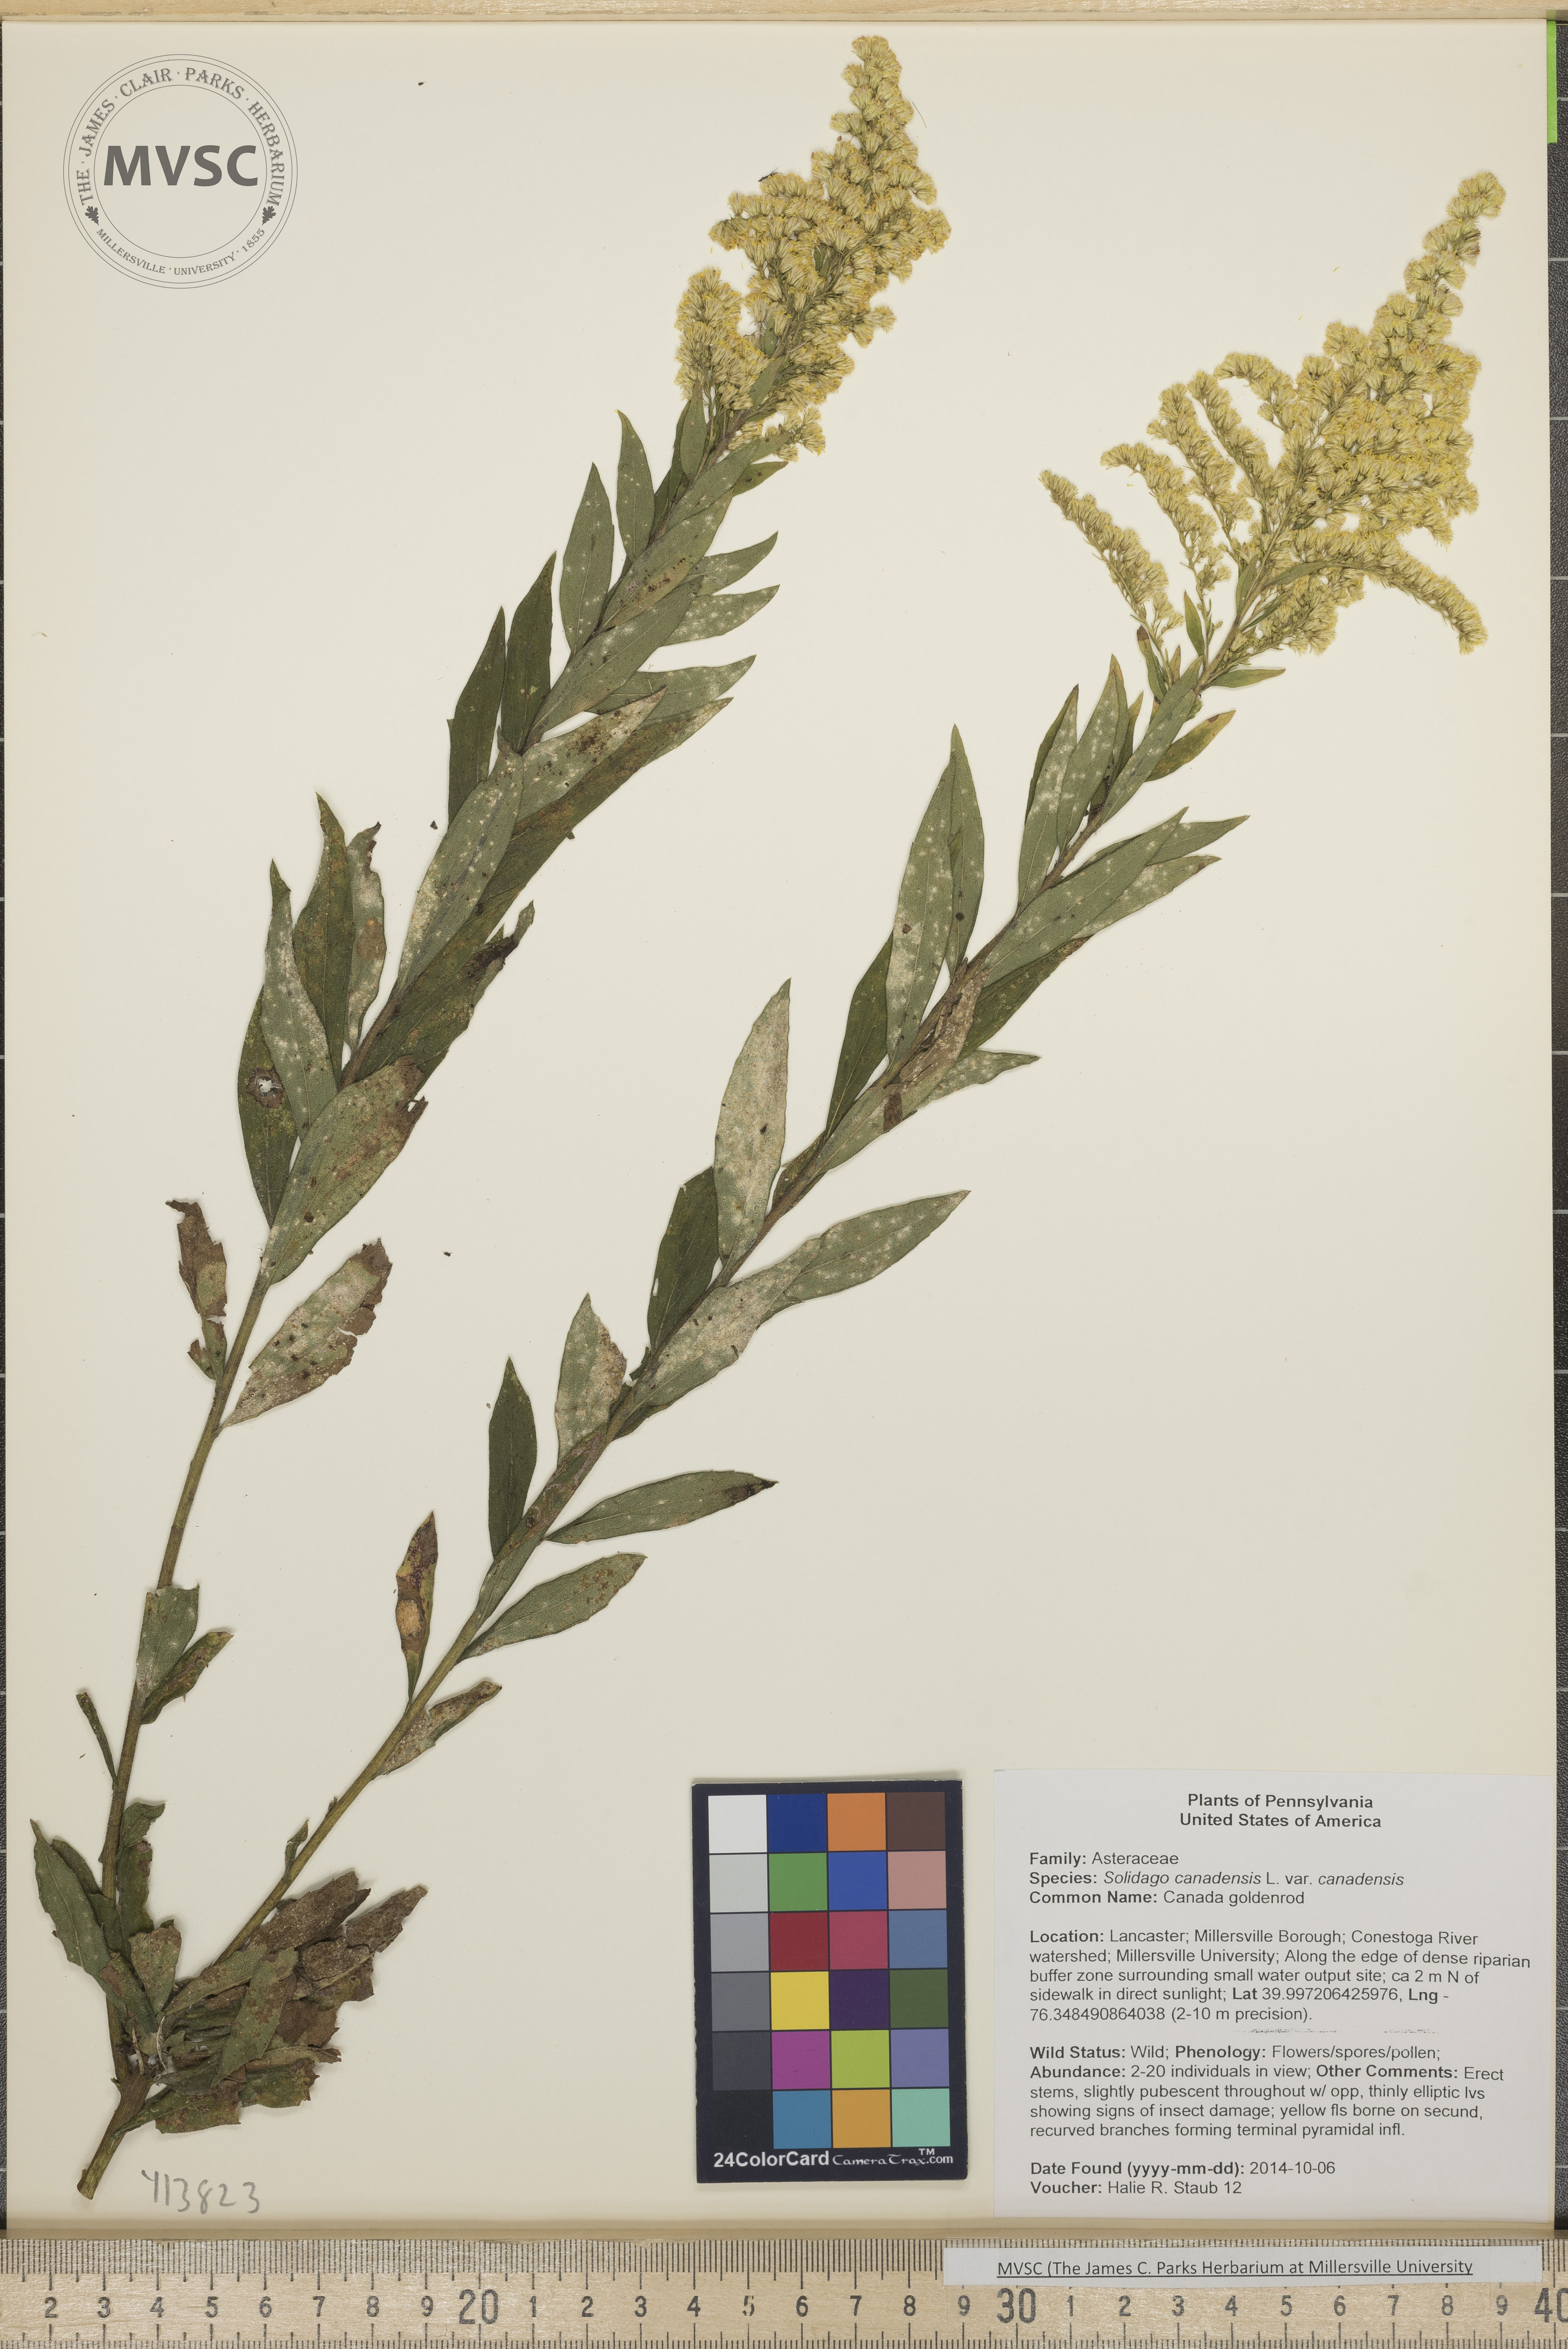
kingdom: Plantae
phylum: Tracheophyta
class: Magnoliopsida
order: Asterales
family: Asteraceae
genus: Solidago
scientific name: Solidago altissima
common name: Late goldenrod
